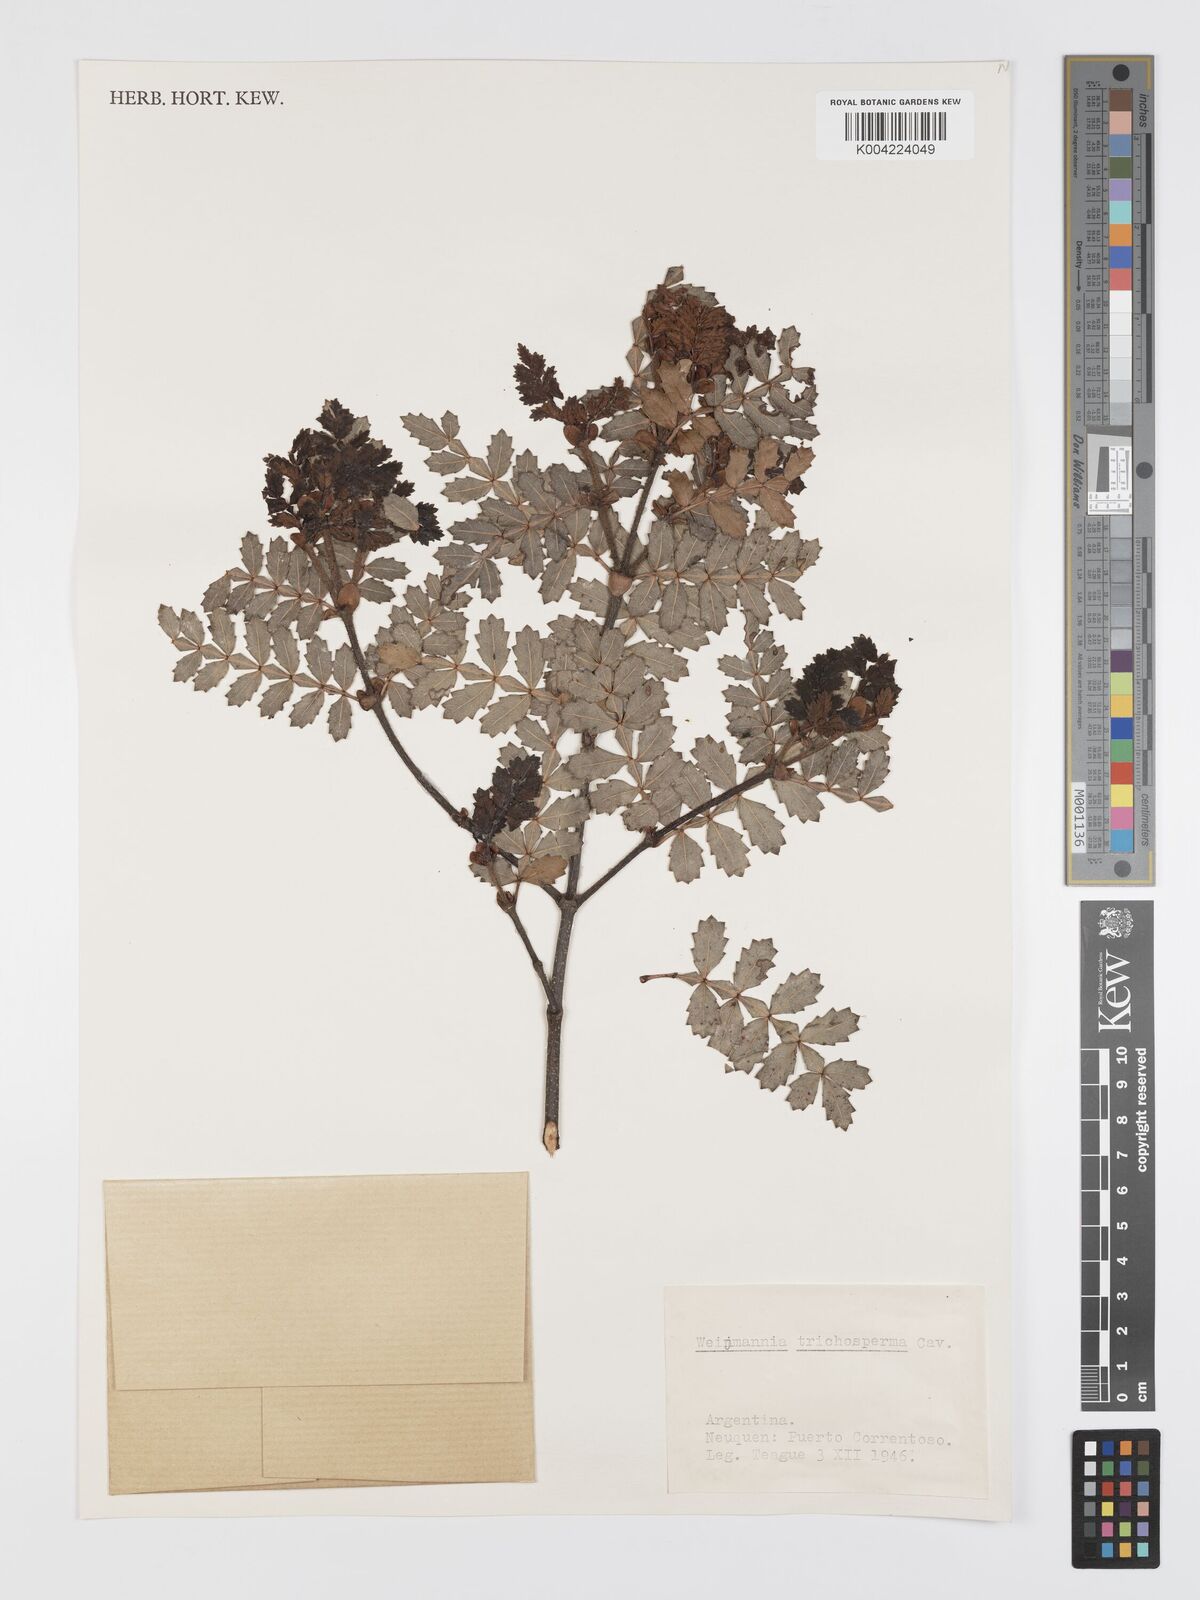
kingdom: Plantae
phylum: Tracheophyta
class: Magnoliopsida
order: Oxalidales
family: Cunoniaceae
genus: Weinmannia
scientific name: Weinmannia trichosperma
